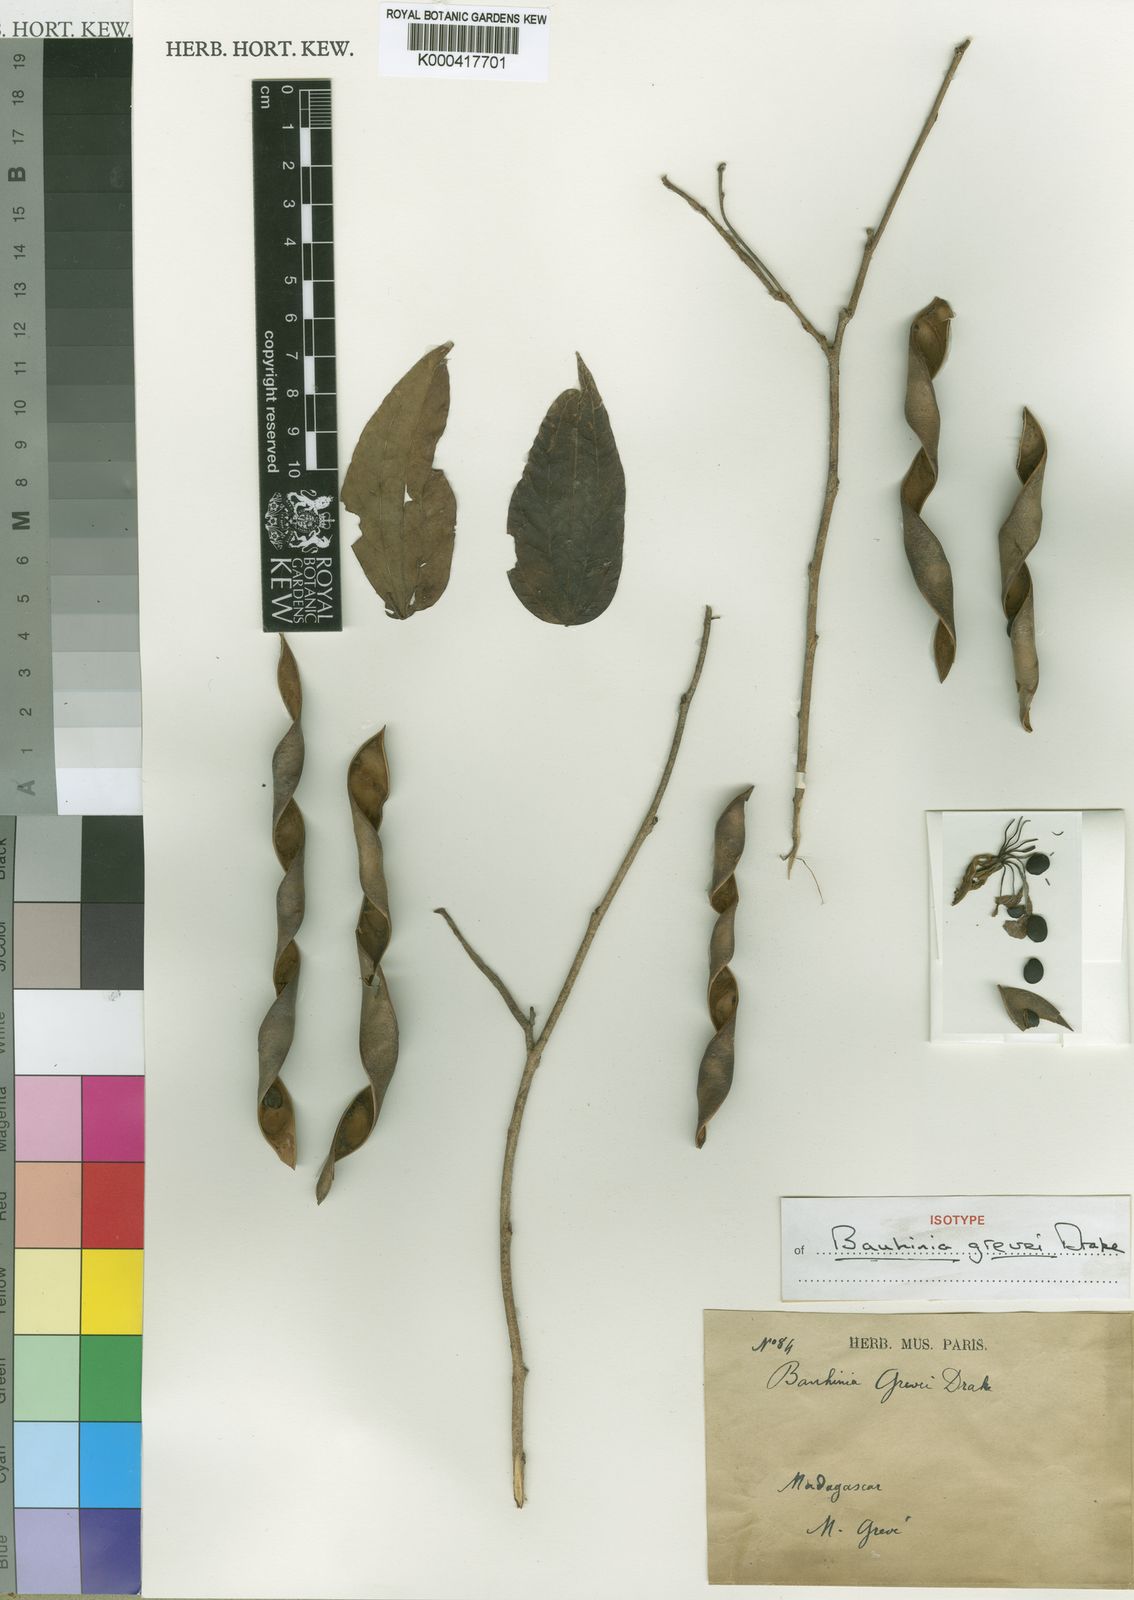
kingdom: Plantae
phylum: Tracheophyta
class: Magnoliopsida
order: Fabales
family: Fabaceae
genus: Bauhinia
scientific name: Bauhinia grevei
